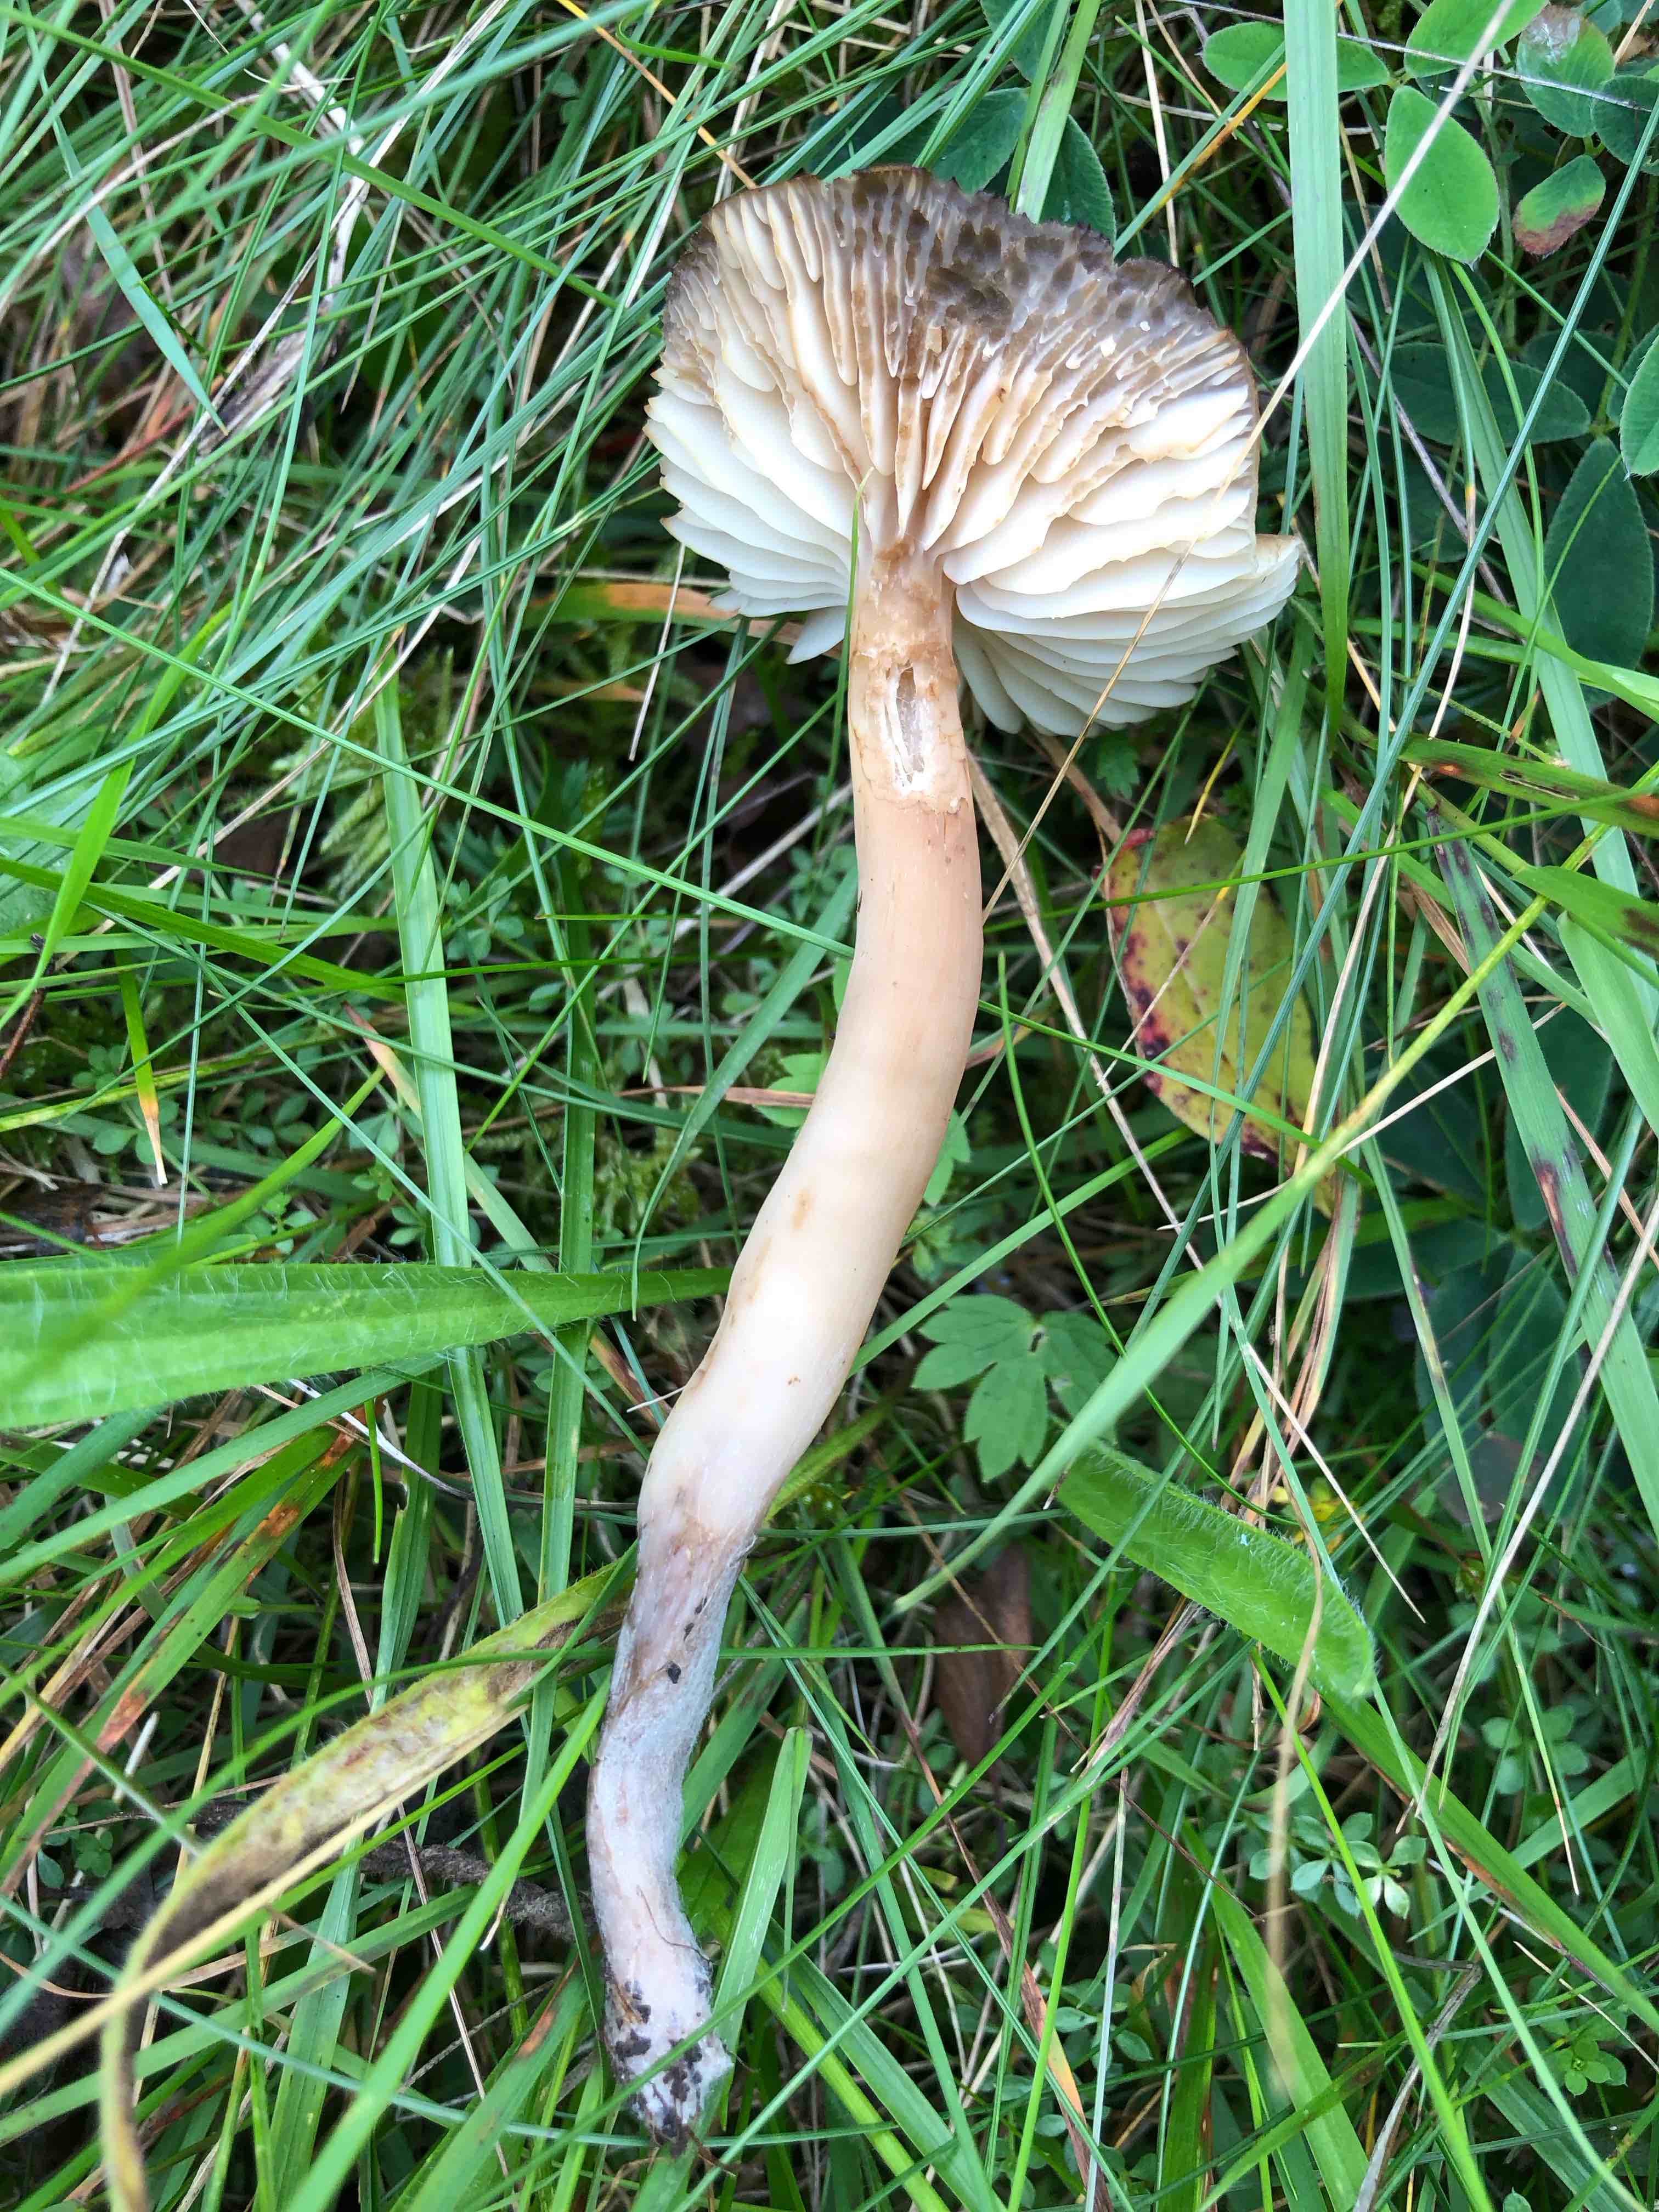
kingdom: Fungi
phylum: Basidiomycota
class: Agaricomycetes
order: Agaricales
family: Hygrophoraceae
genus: Neohygrocybe
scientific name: Neohygrocybe nitrata
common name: stinkende vokshat
